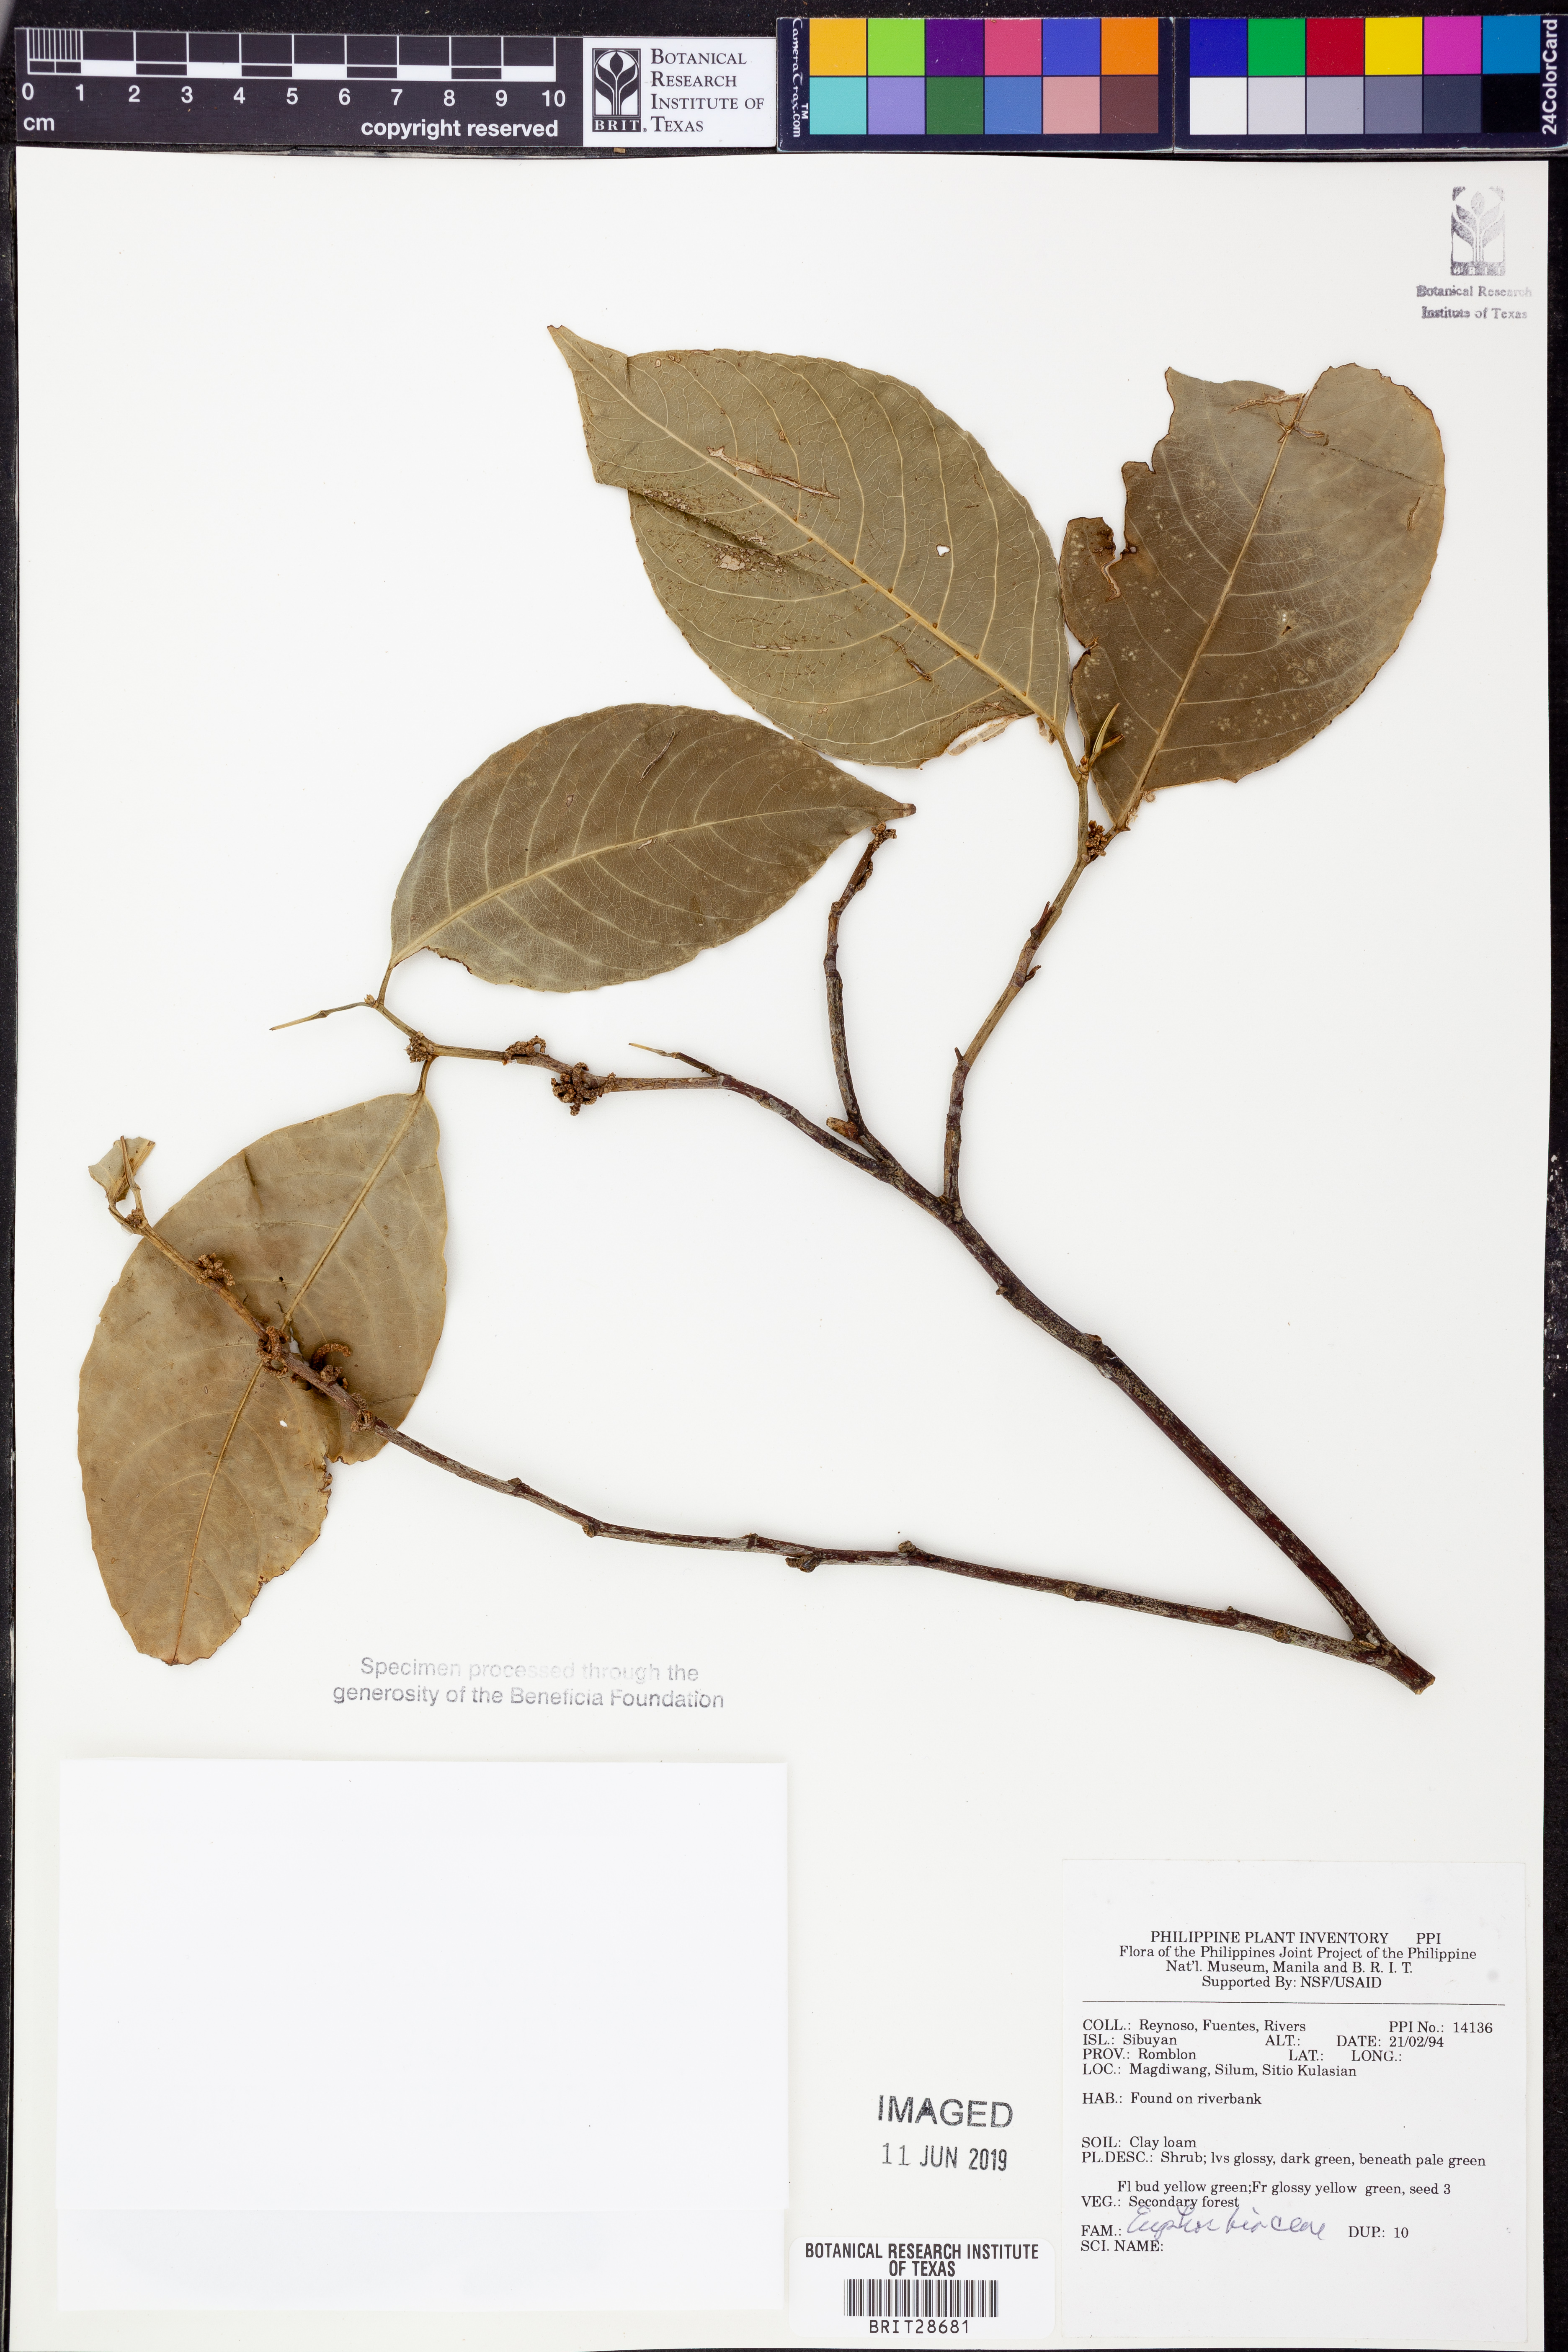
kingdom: Plantae
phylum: Tracheophyta
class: Magnoliopsida
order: Malpighiales
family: Euphorbiaceae
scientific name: Euphorbiaceae
